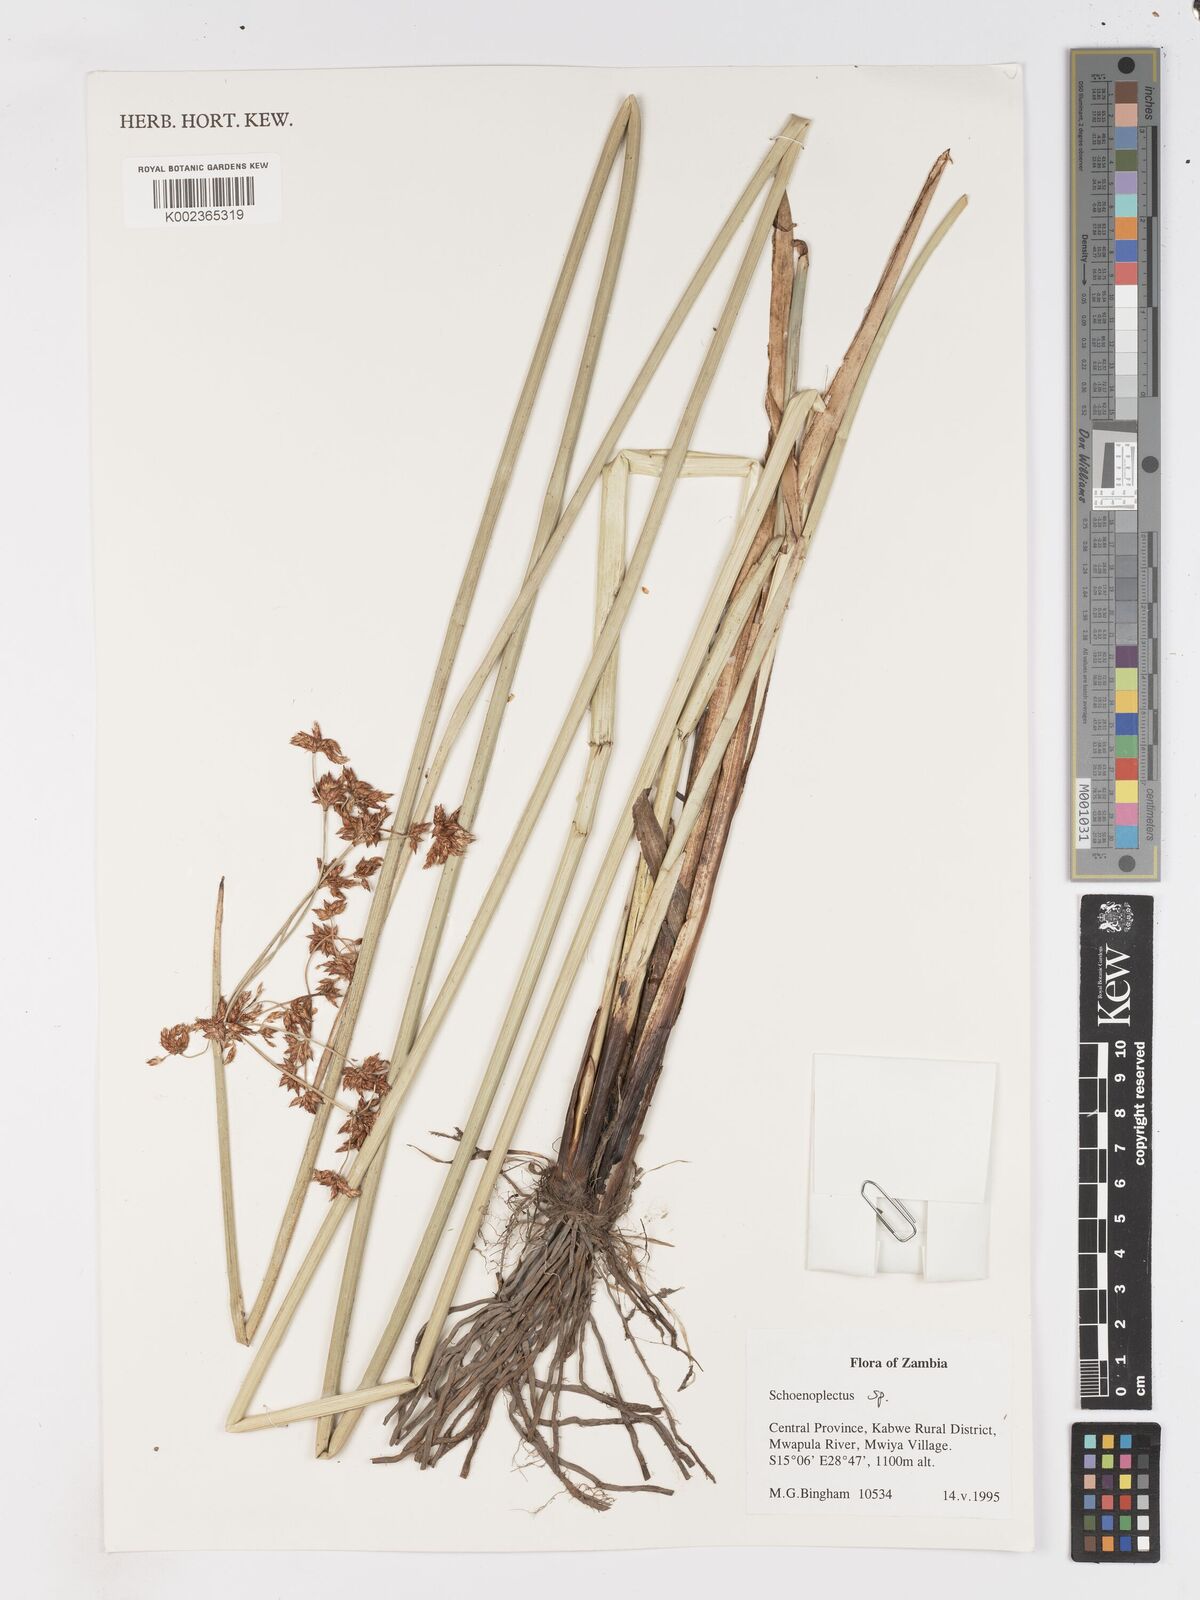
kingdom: Plantae
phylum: Tracheophyta
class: Liliopsida
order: Poales
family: Cyperaceae
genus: Schoenoplectus
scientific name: Schoenoplectus
